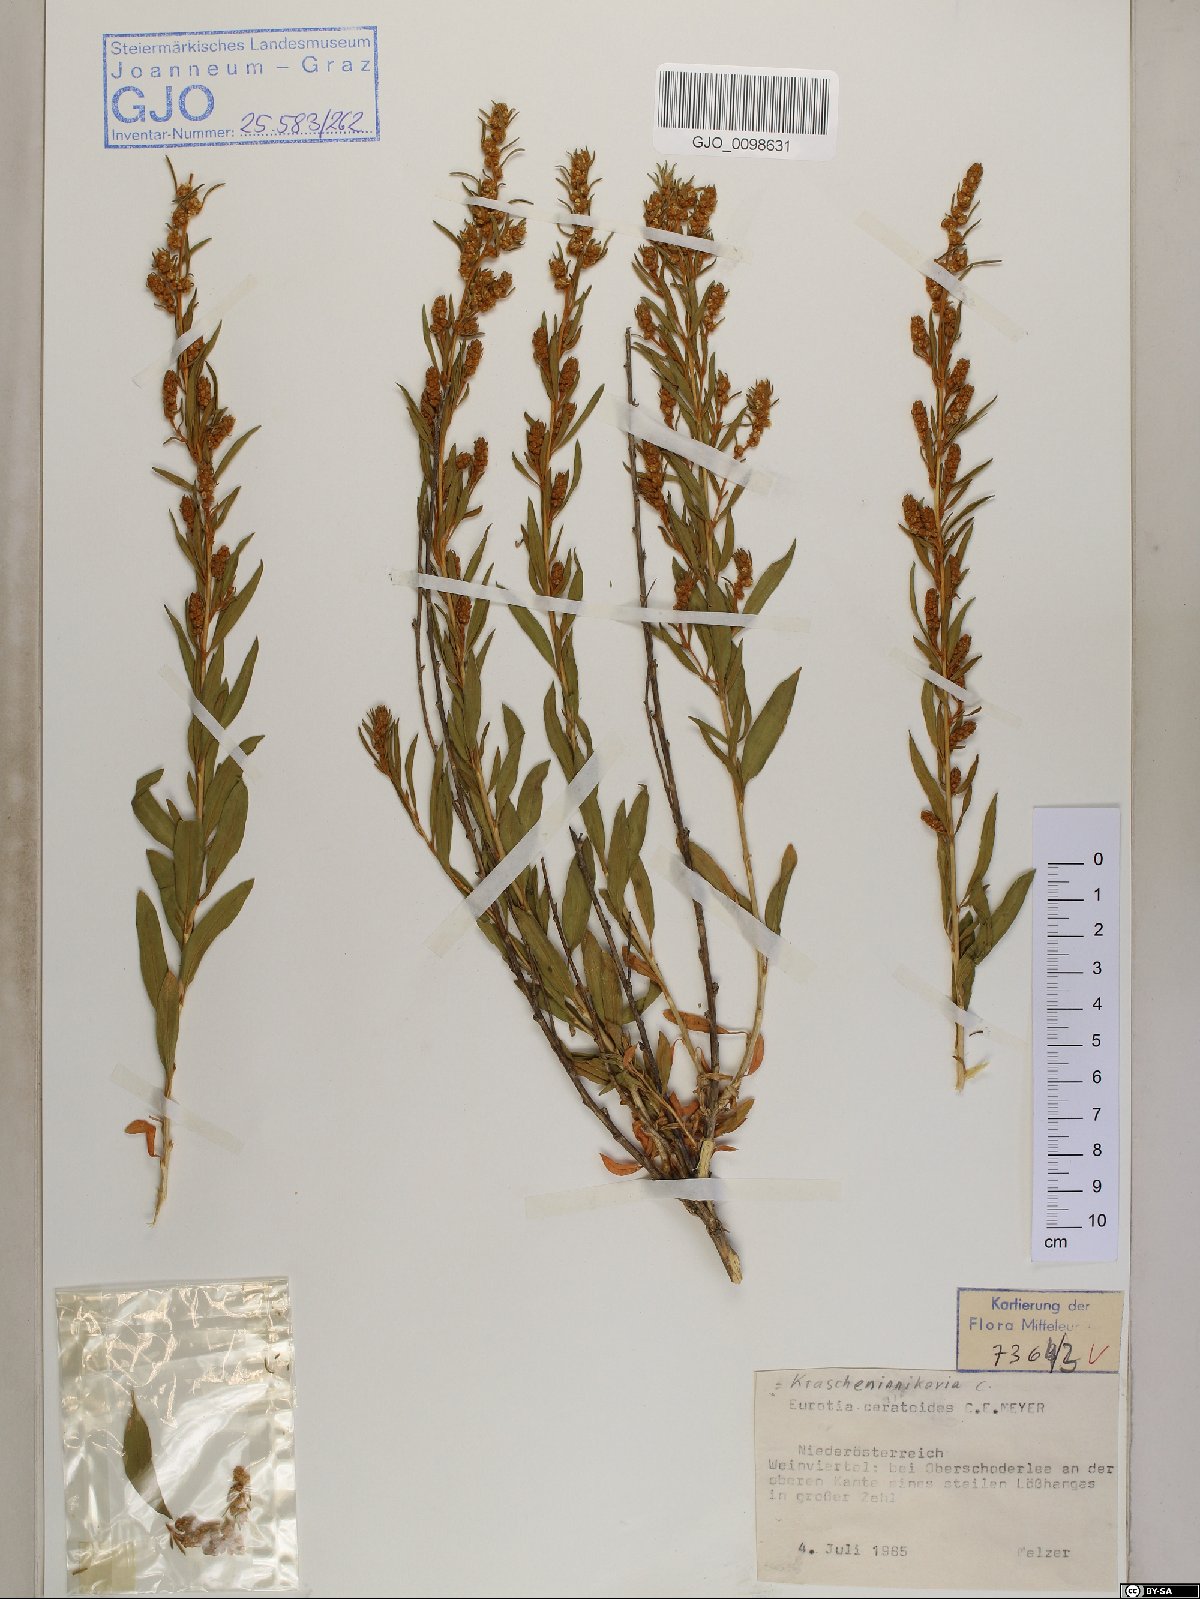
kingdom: Plantae
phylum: Tracheophyta
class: Magnoliopsida
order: Caryophyllales
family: Amaranthaceae
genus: Krascheninnikovia
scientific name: Krascheninnikovia ceratoides
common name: Pamirian winterfat
